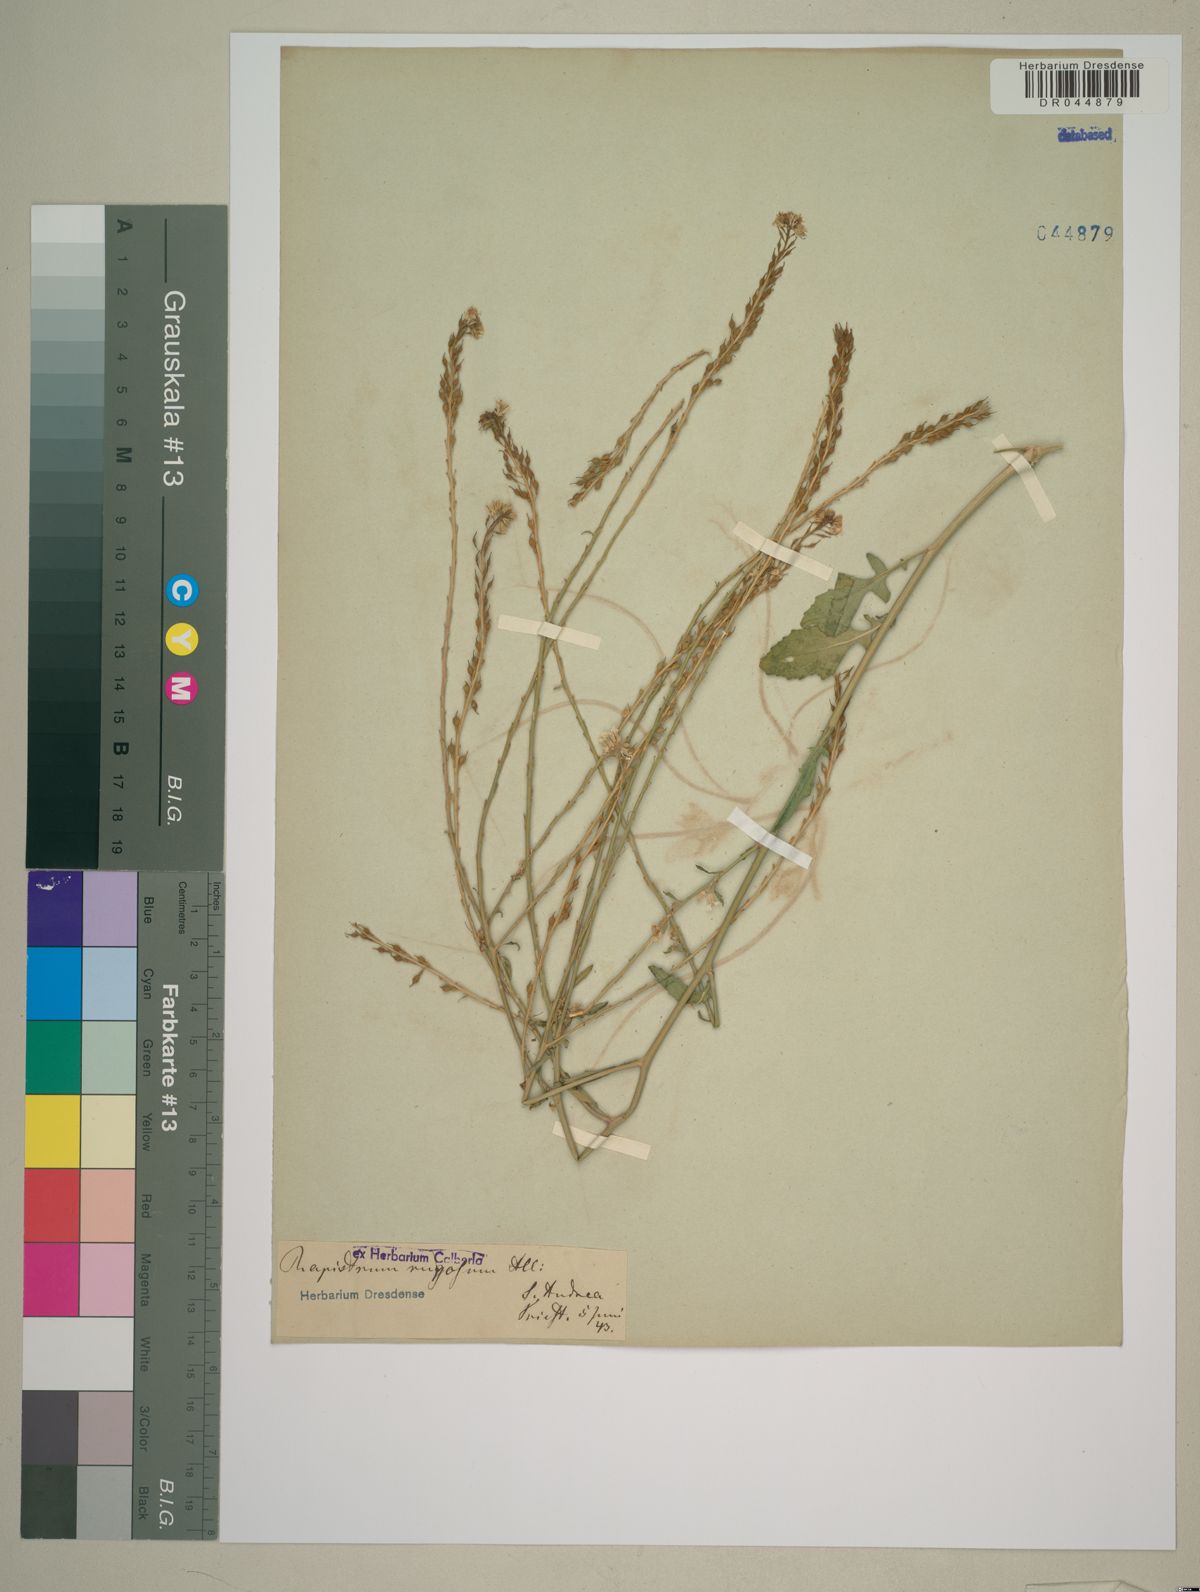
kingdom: Plantae
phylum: Tracheophyta
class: Magnoliopsida
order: Brassicales
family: Brassicaceae
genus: Rapistrum
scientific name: Rapistrum rugosum
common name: Annual bastardcabbage
